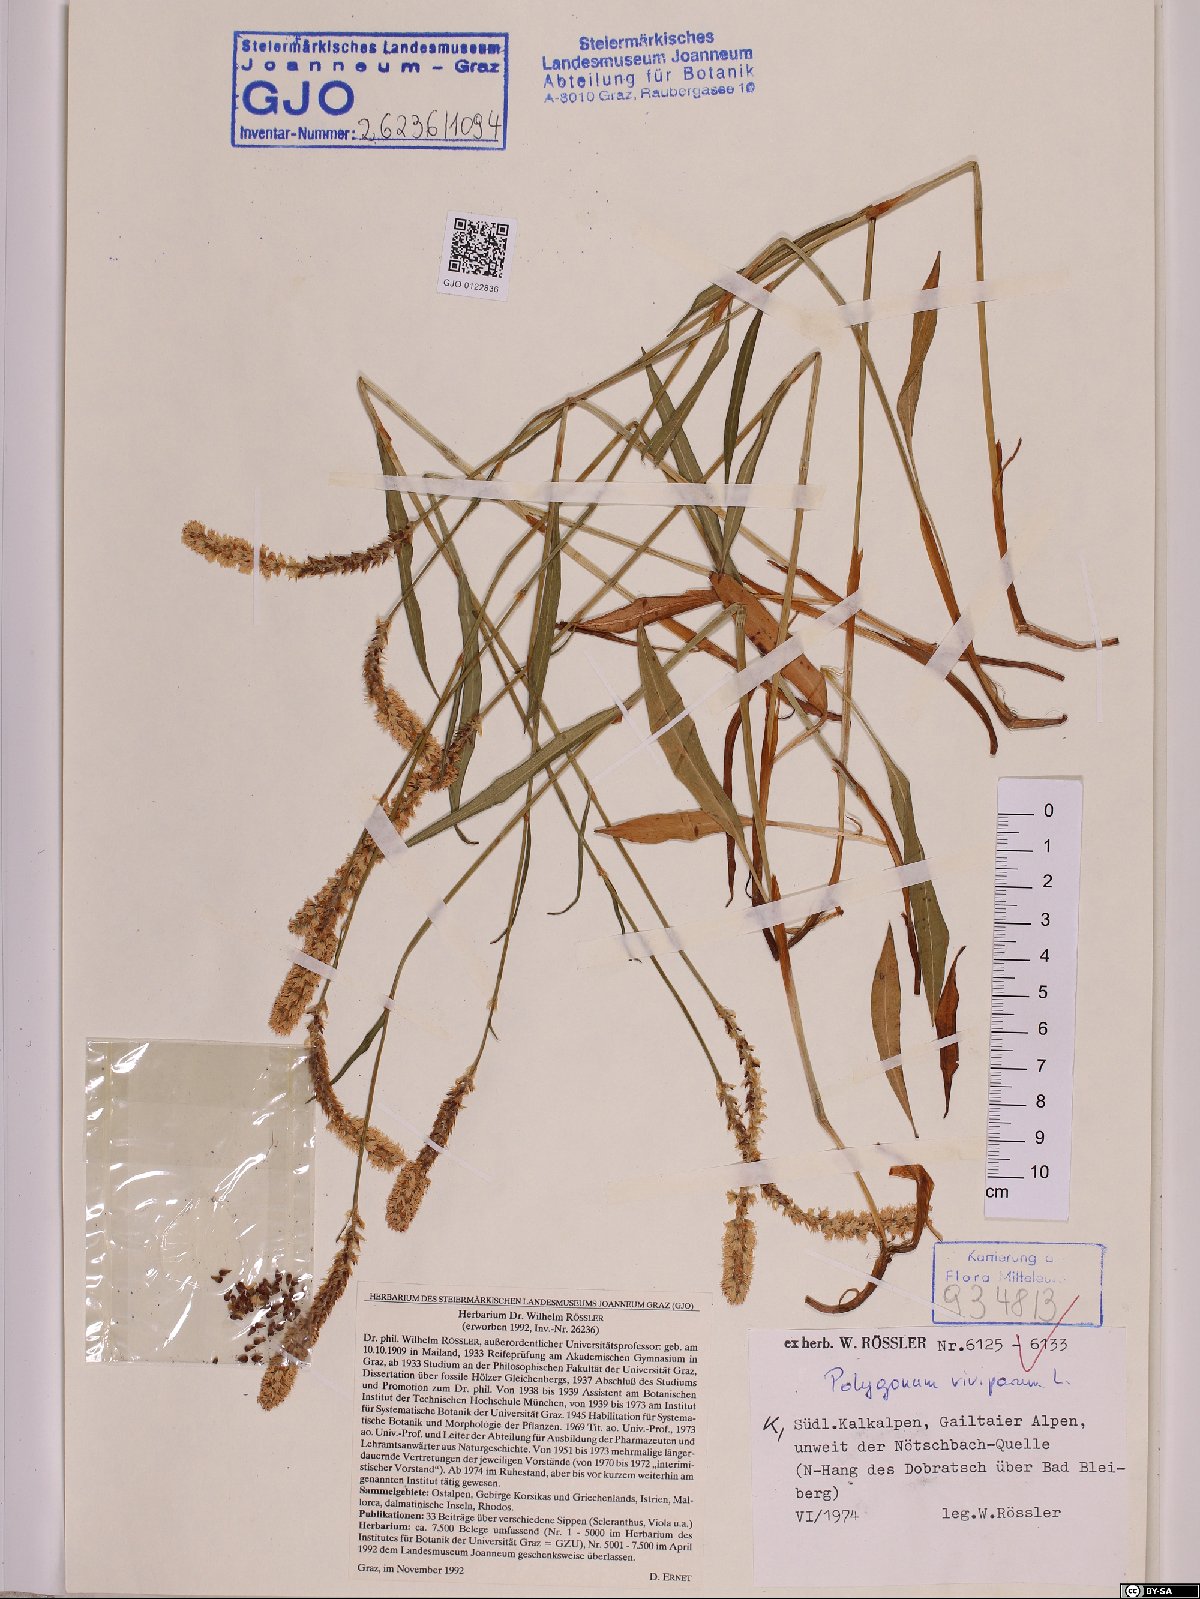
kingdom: Plantae
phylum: Tracheophyta
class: Magnoliopsida
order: Caryophyllales
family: Polygonaceae
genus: Bistorta
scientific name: Bistorta vivipara
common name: Alpine bistort
